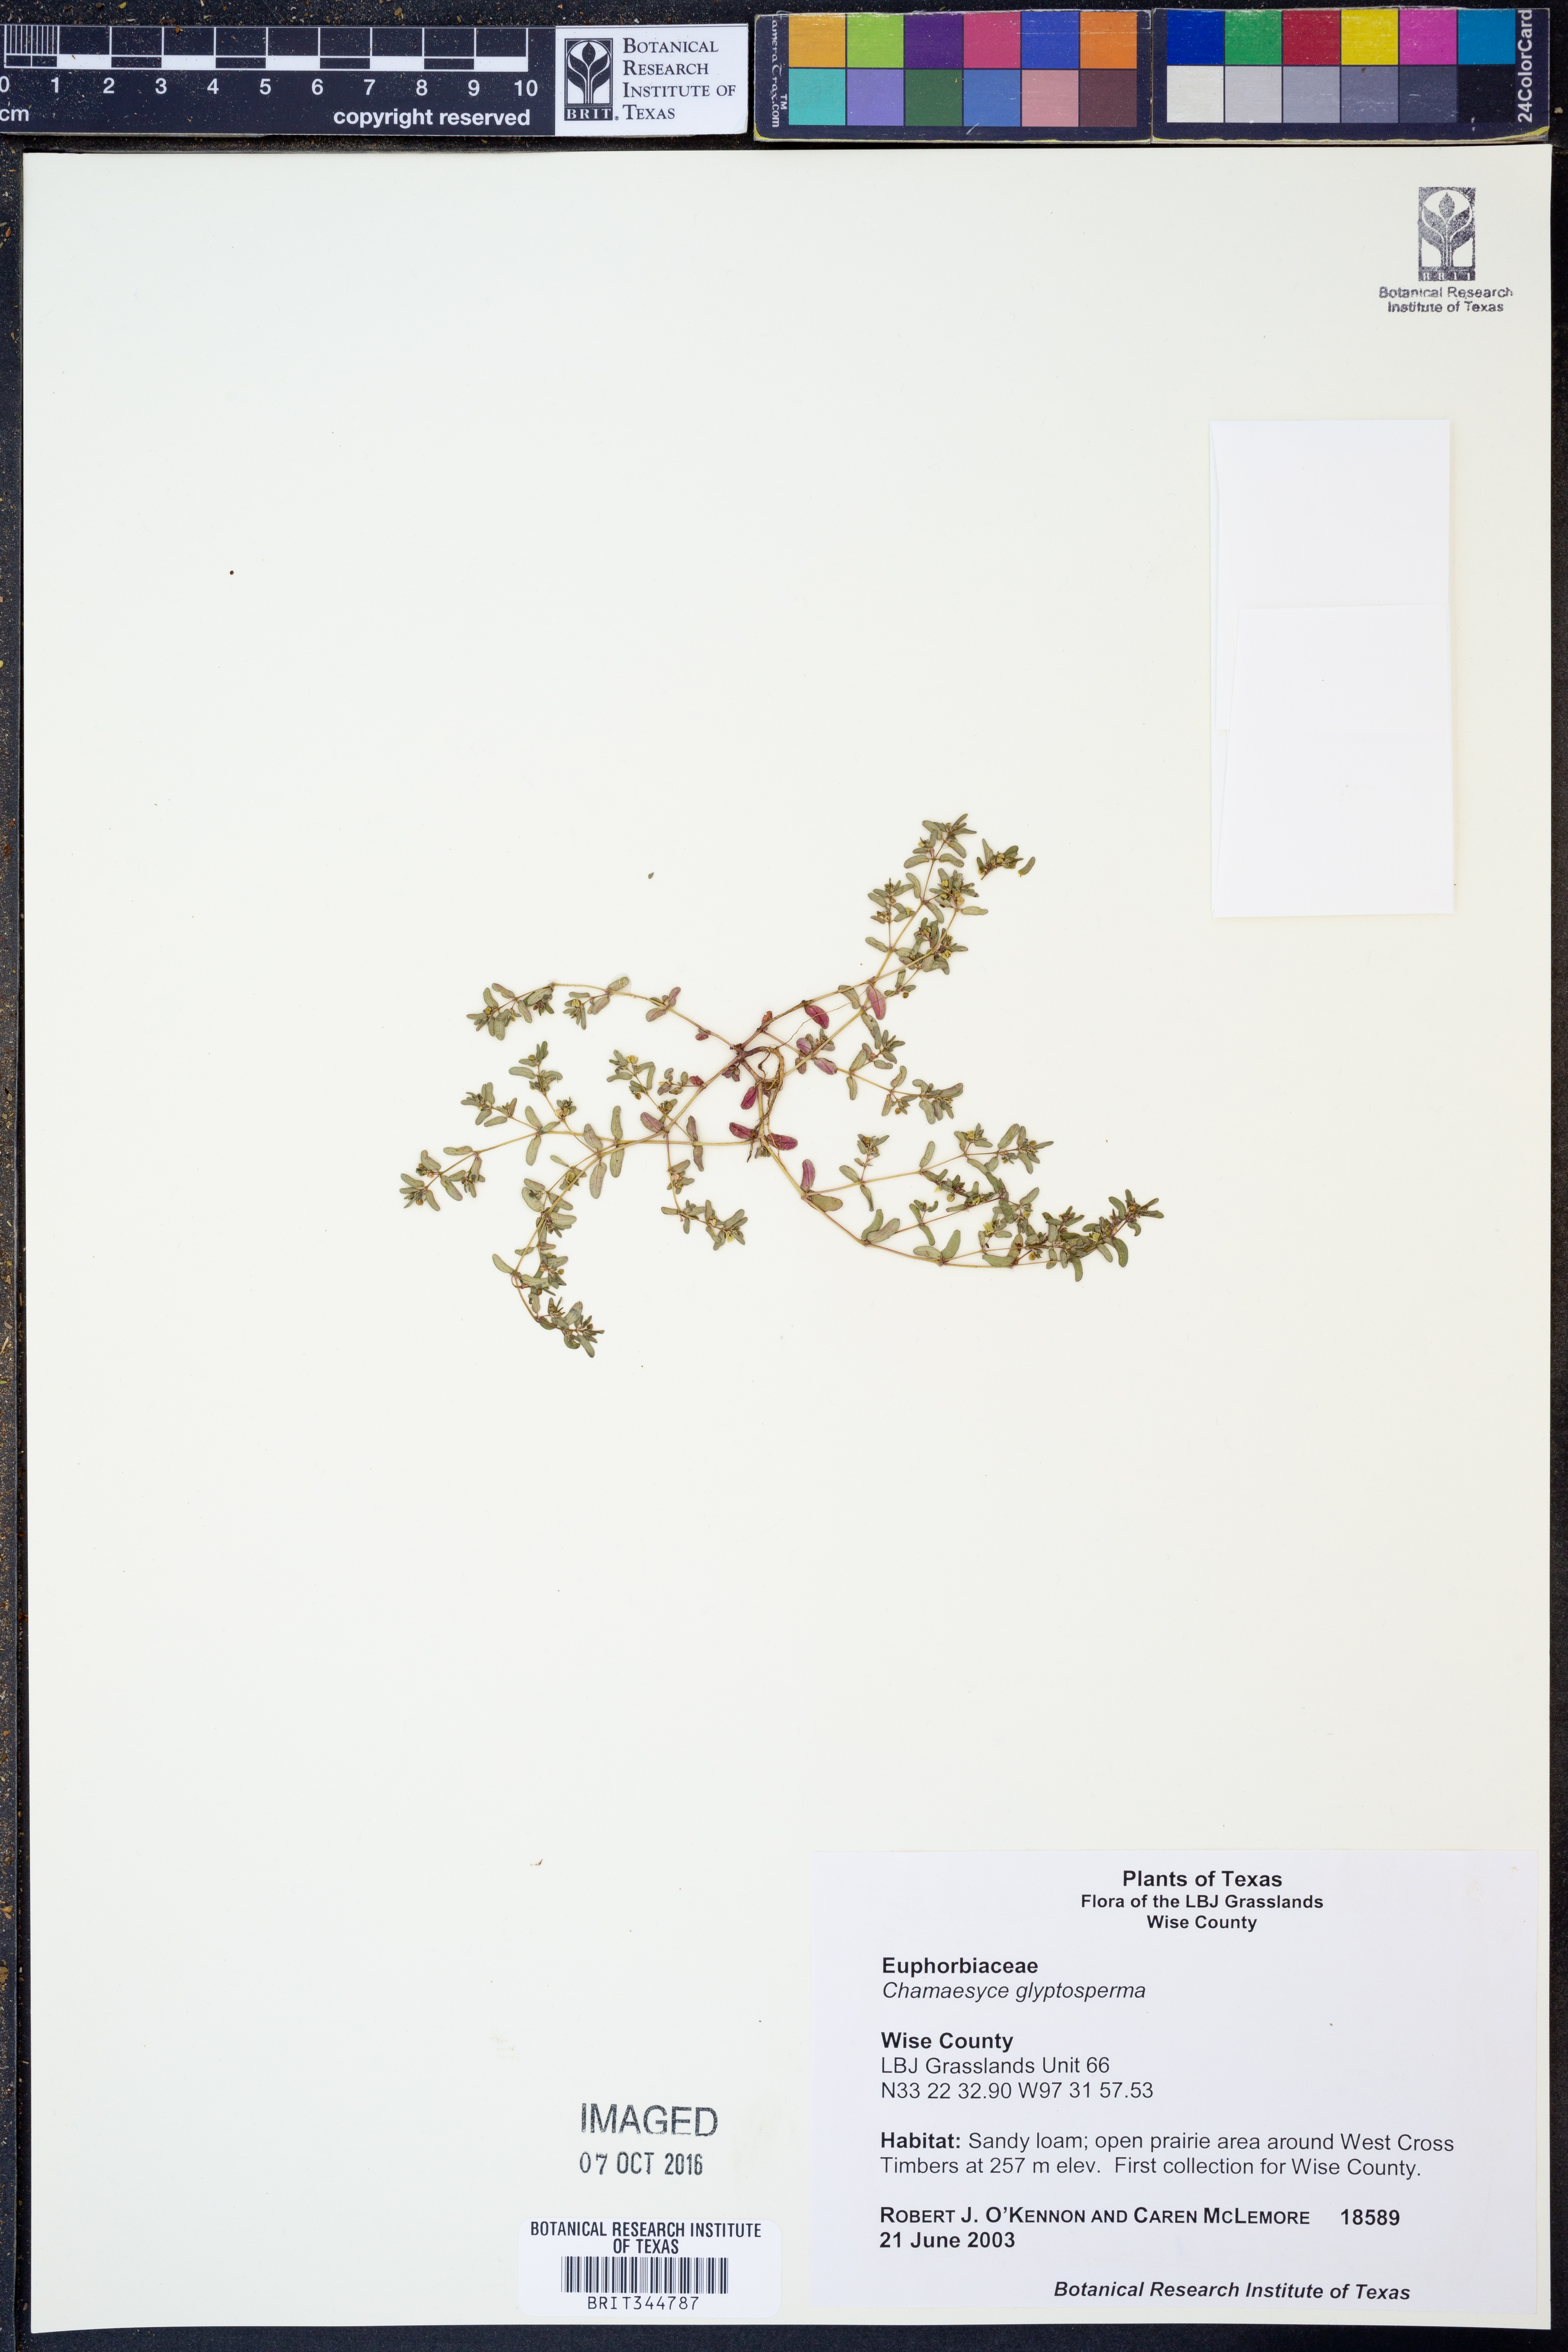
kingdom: Plantae
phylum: Tracheophyta
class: Magnoliopsida
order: Malpighiales
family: Euphorbiaceae
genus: Euphorbia
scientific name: Euphorbia glyptosperma
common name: Corrugate-seeded spurge
